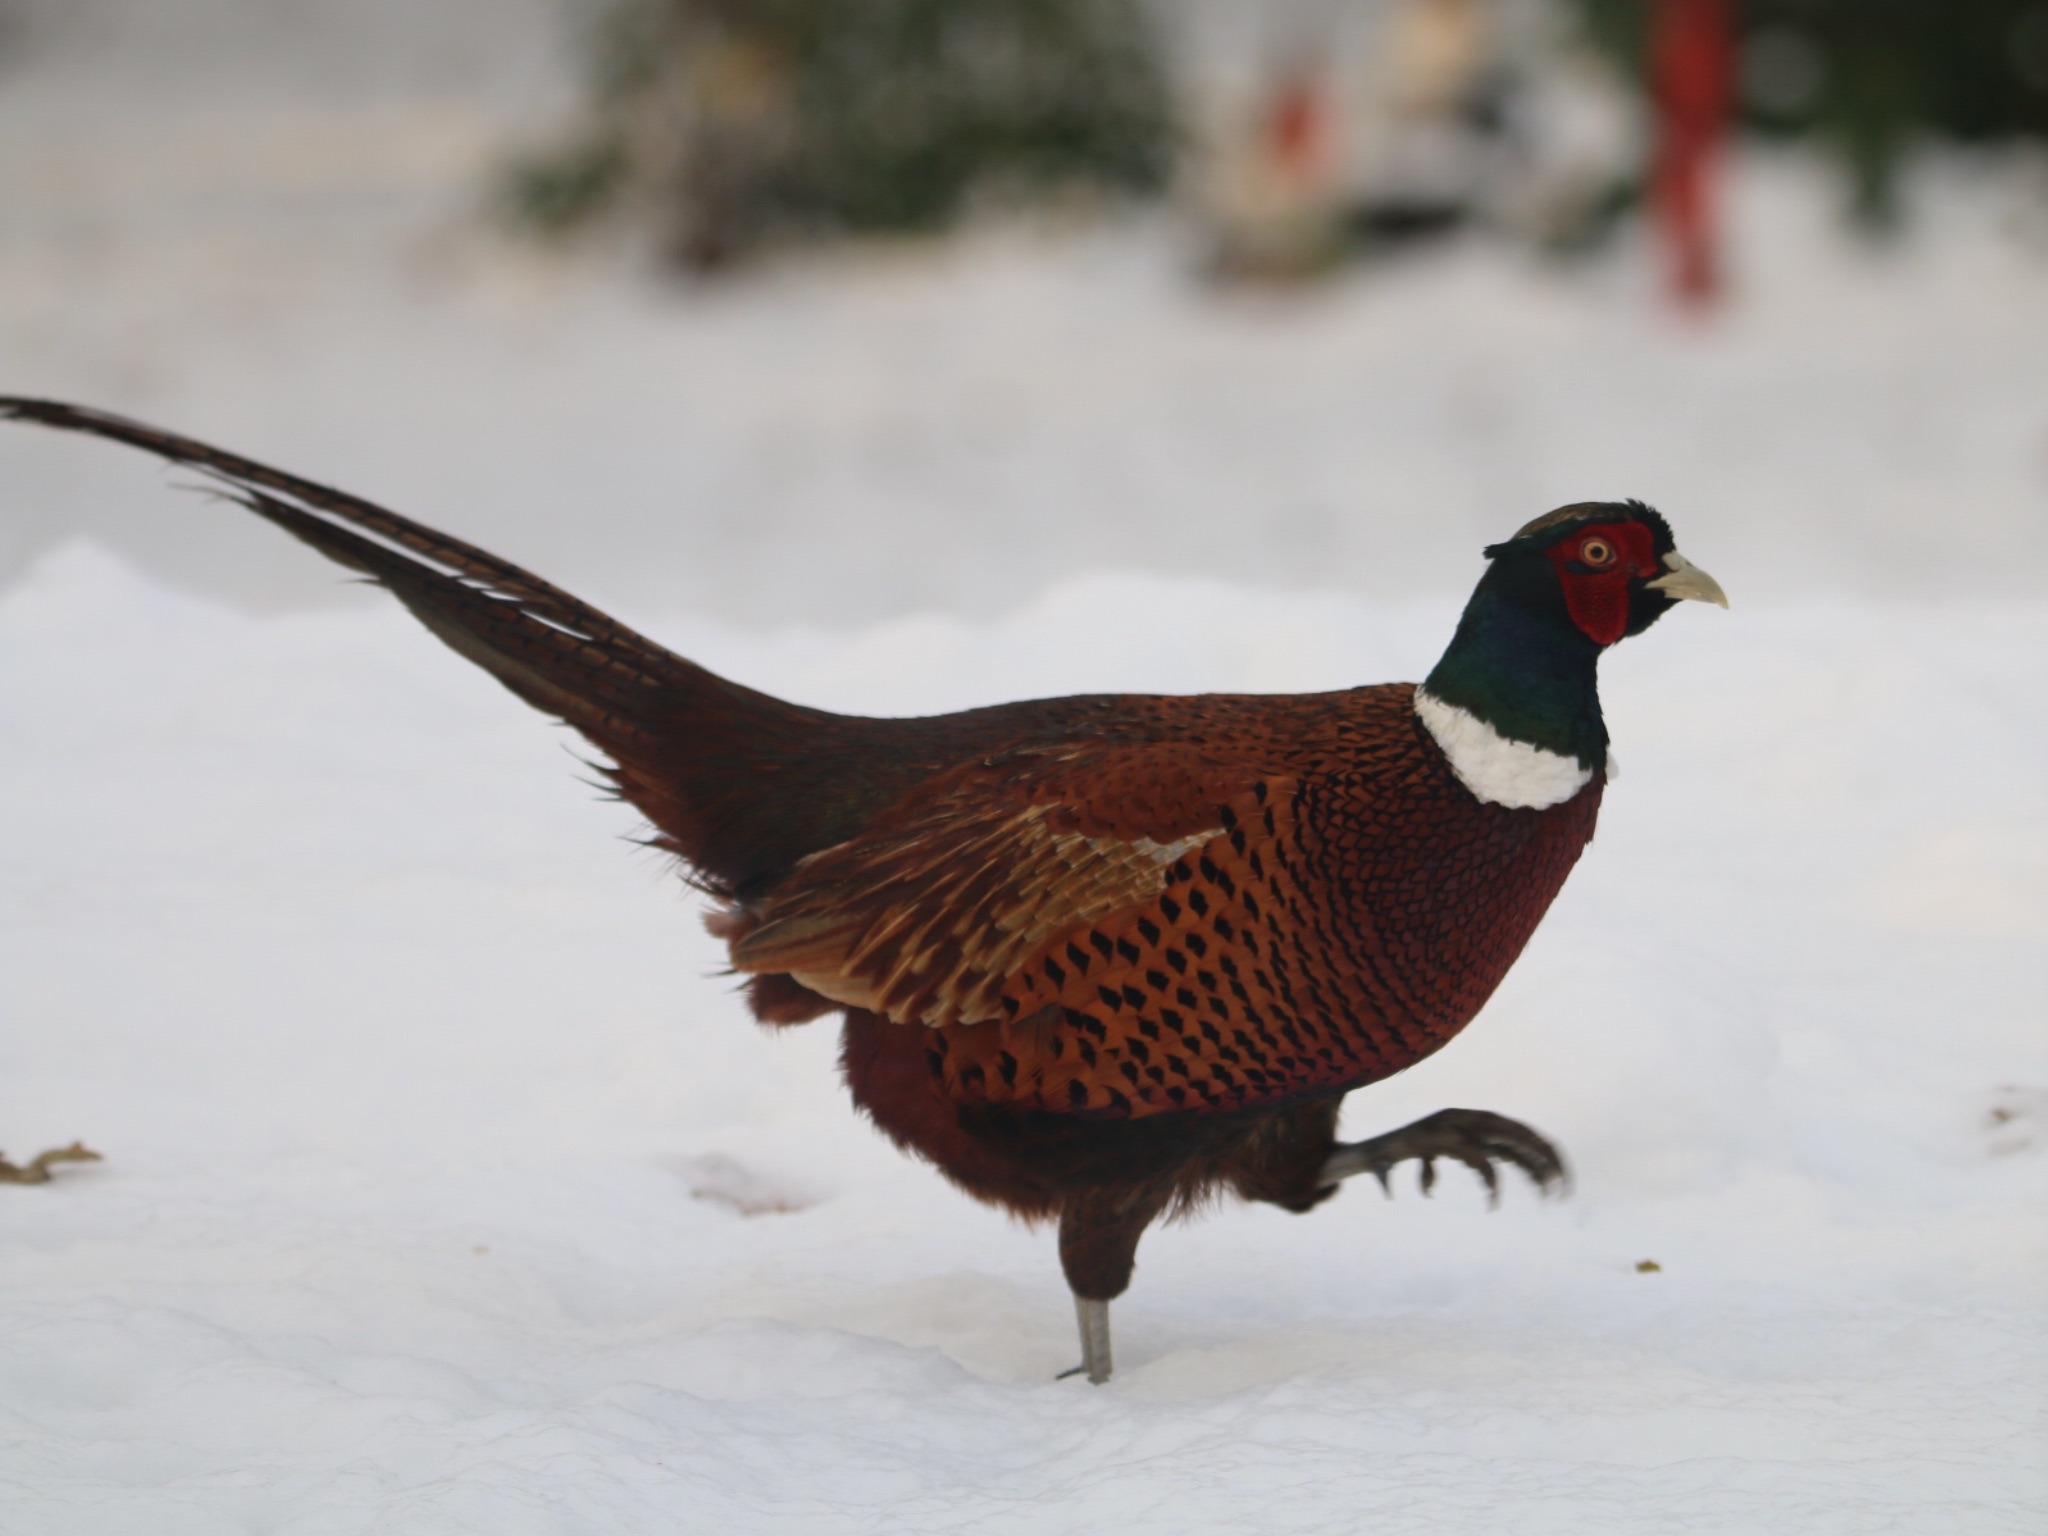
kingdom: Animalia
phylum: Chordata
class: Aves
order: Galliformes
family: Phasianidae
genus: Phasianus
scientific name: Phasianus colchicus
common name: Fasan
